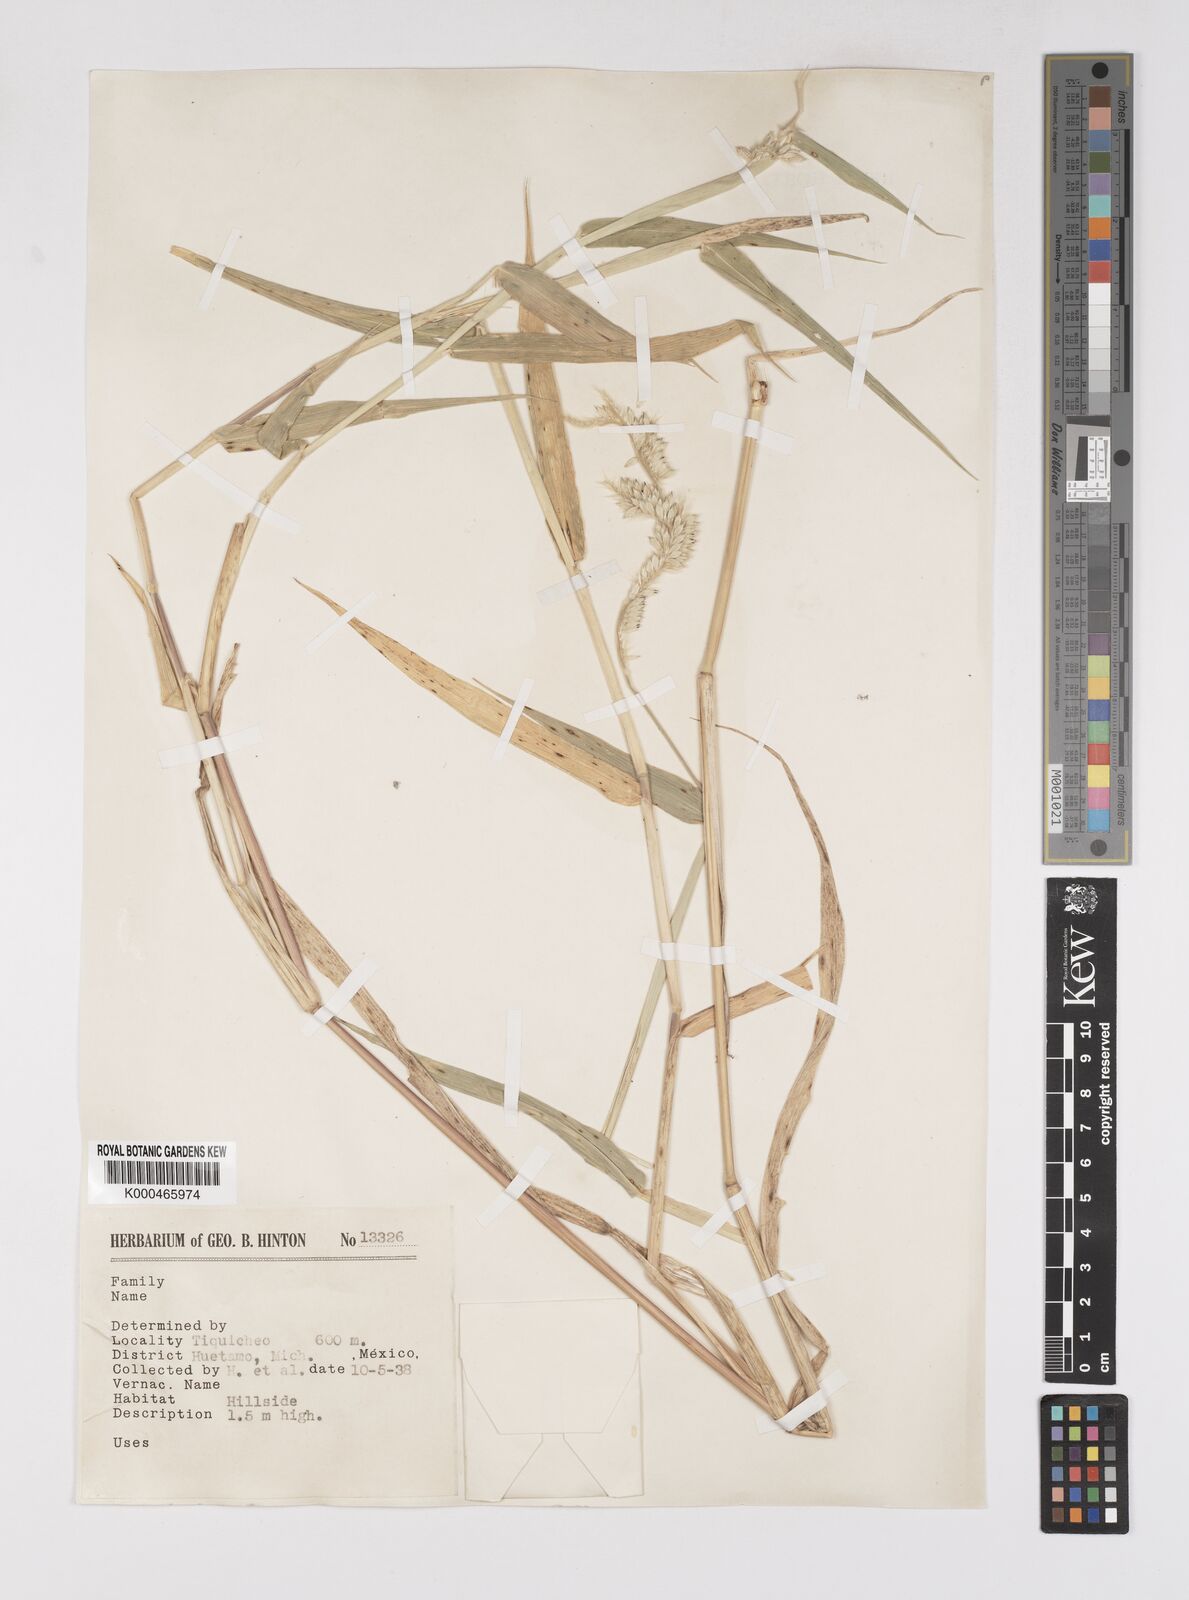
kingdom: Plantae
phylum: Tracheophyta
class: Liliopsida
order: Poales
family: Poaceae
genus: Eriochloa
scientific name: Eriochloa nelsonii
